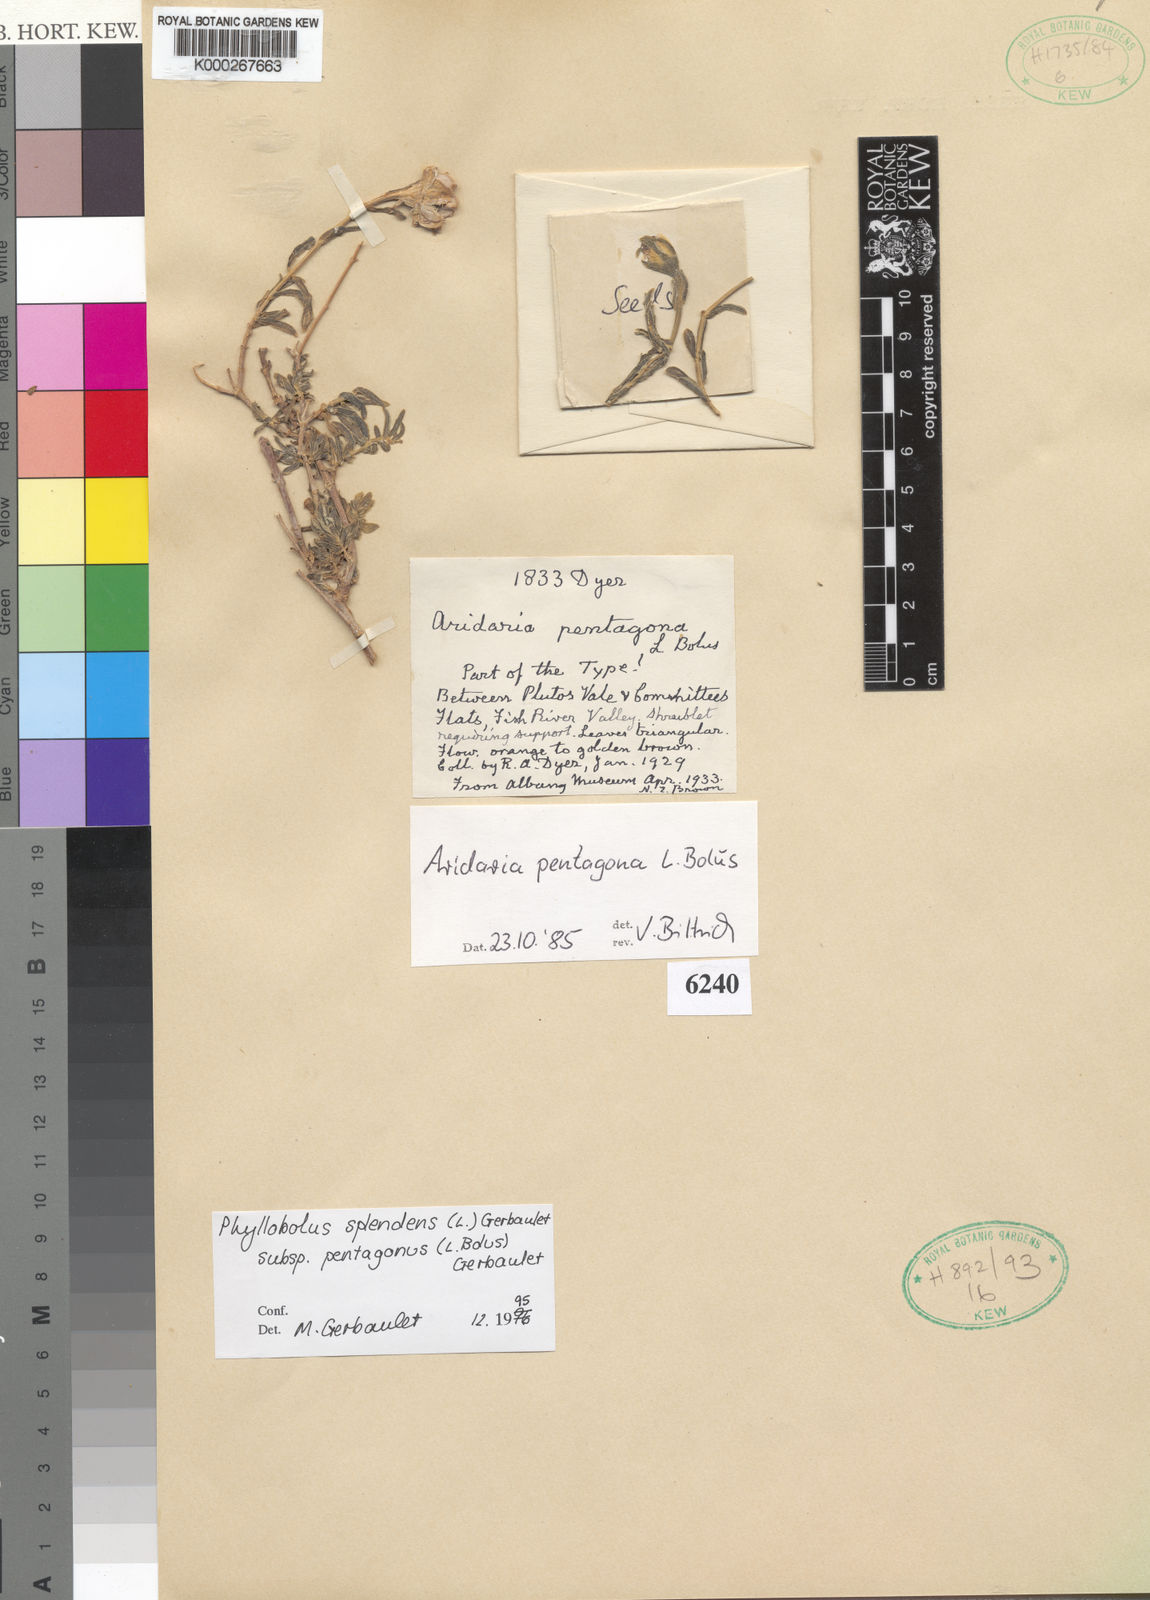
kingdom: Plantae
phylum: Tracheophyta
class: Magnoliopsida
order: Caryophyllales
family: Aizoaceae
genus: Mesembryanthemum
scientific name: Mesembryanthemum splendens
